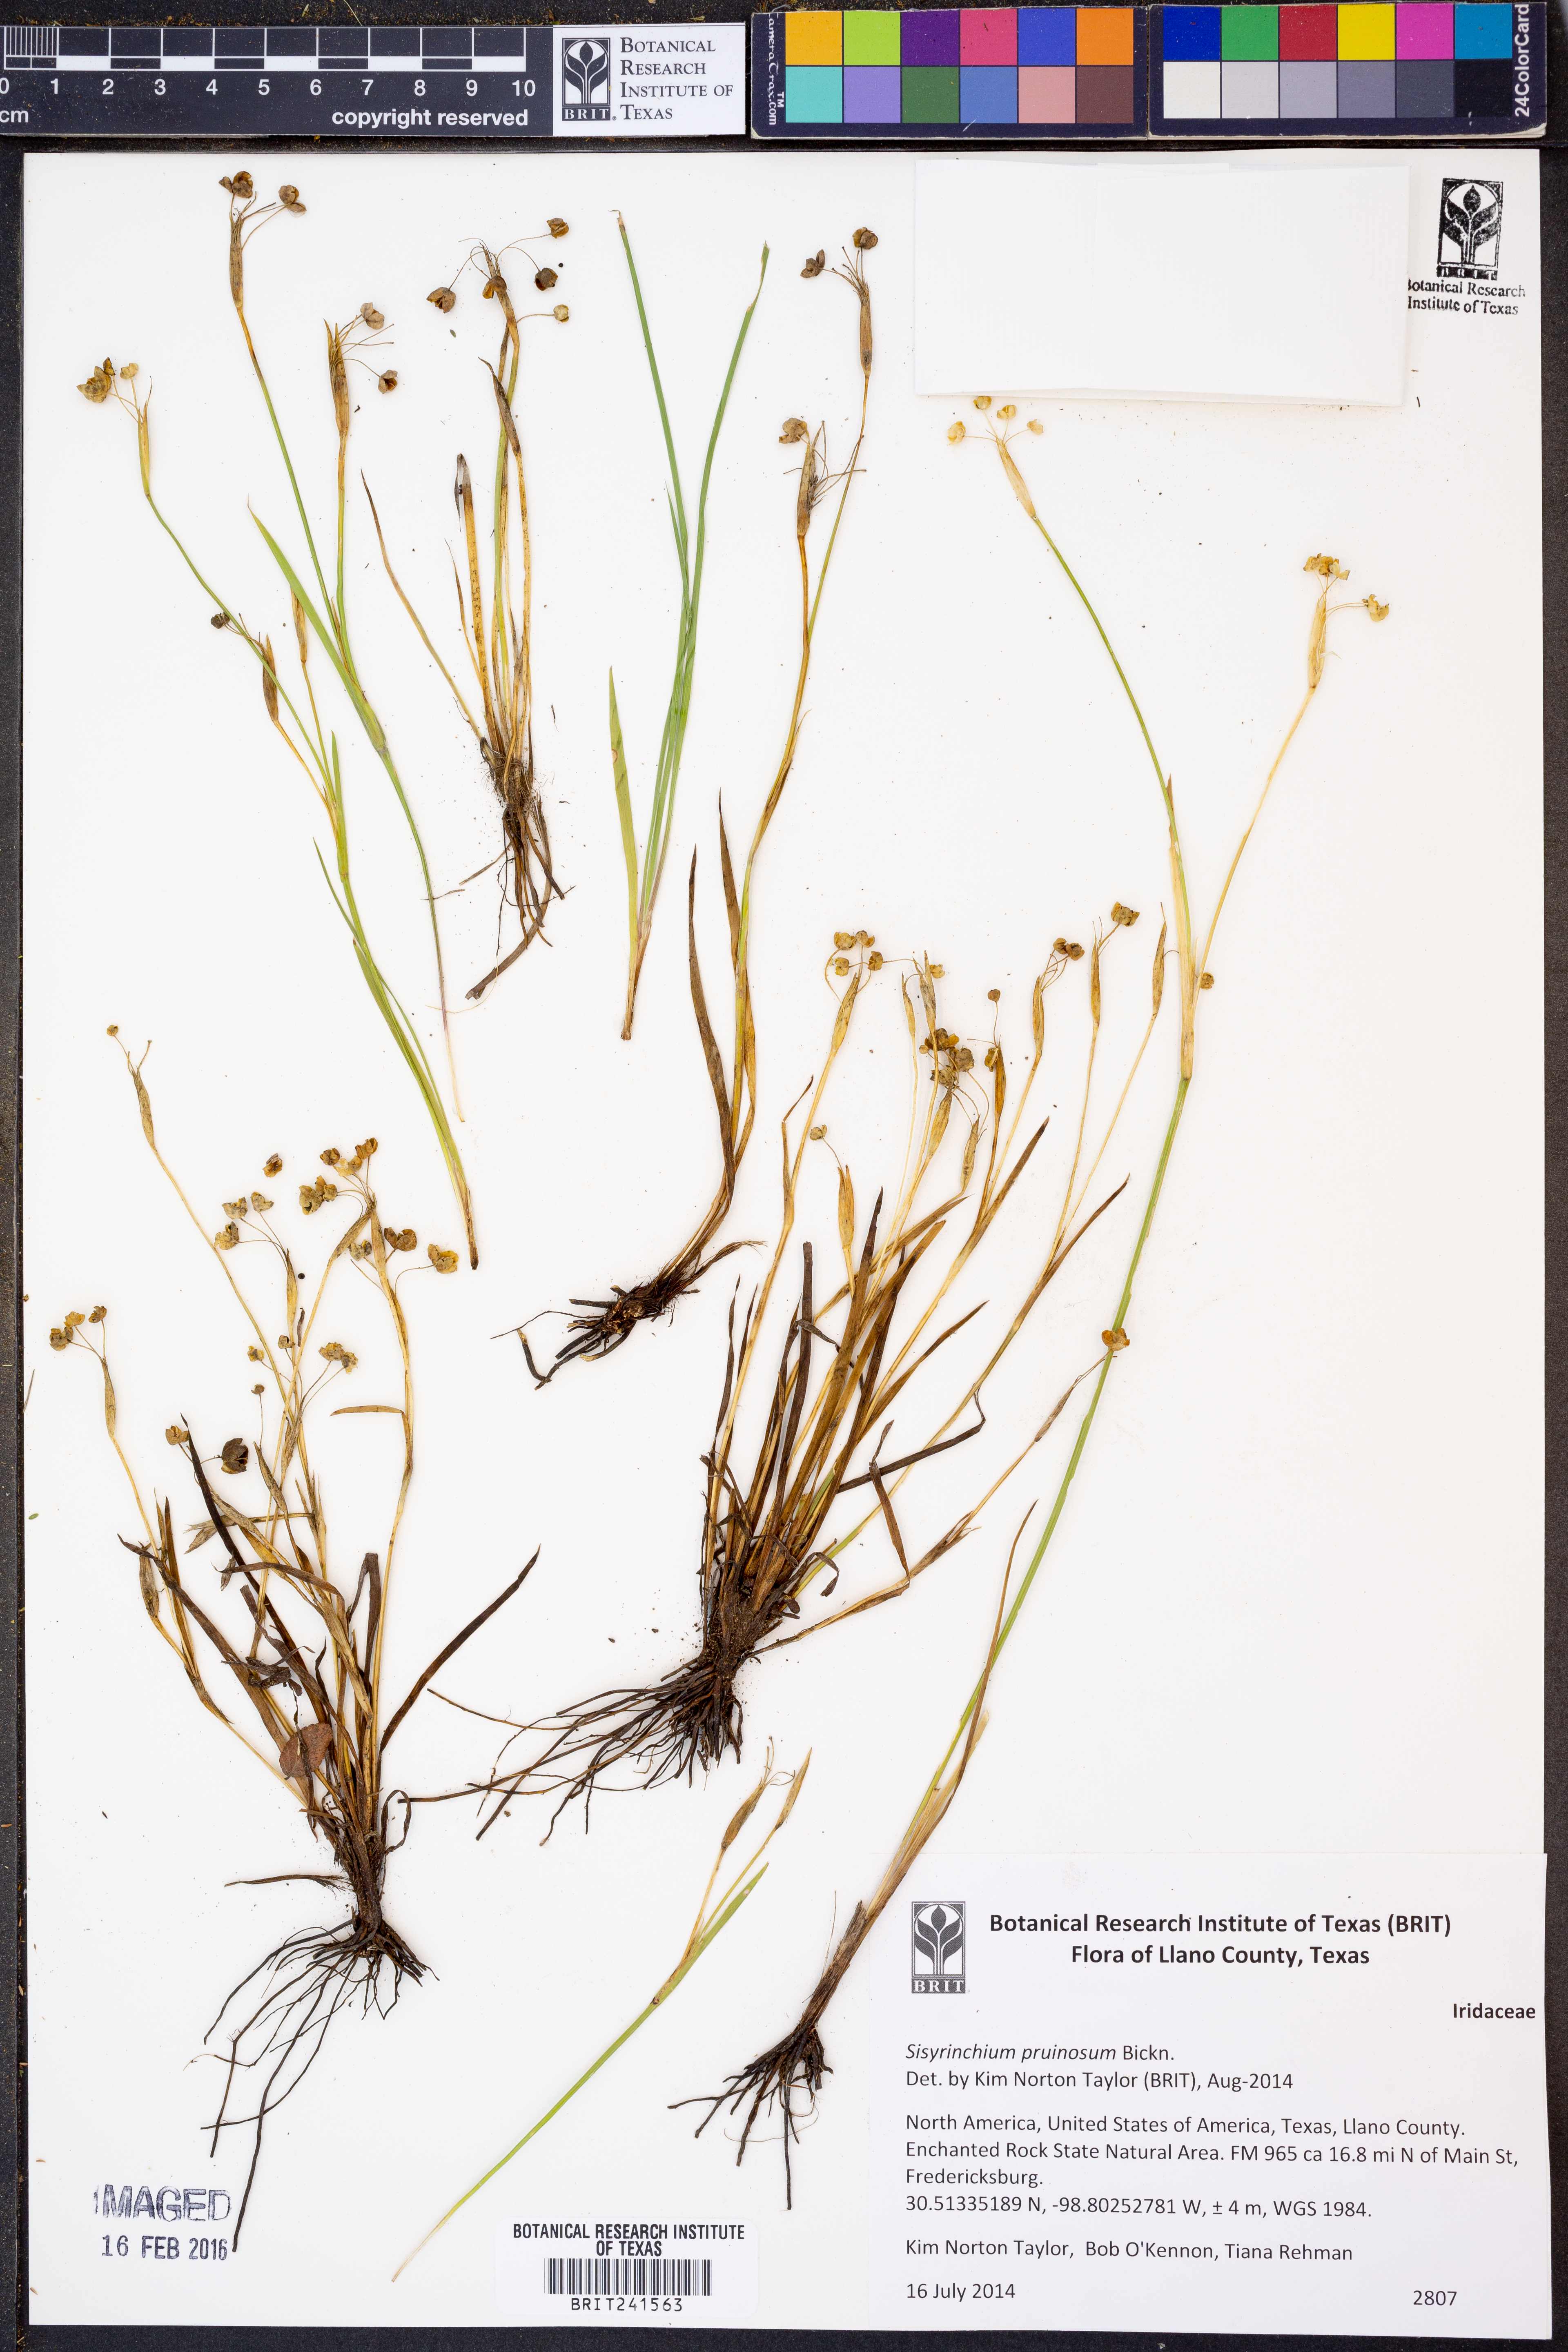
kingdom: Plantae
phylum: Tracheophyta
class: Liliopsida
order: Asparagales
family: Iridaceae
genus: Sisyrinchium
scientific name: Sisyrinchium pruinosum
